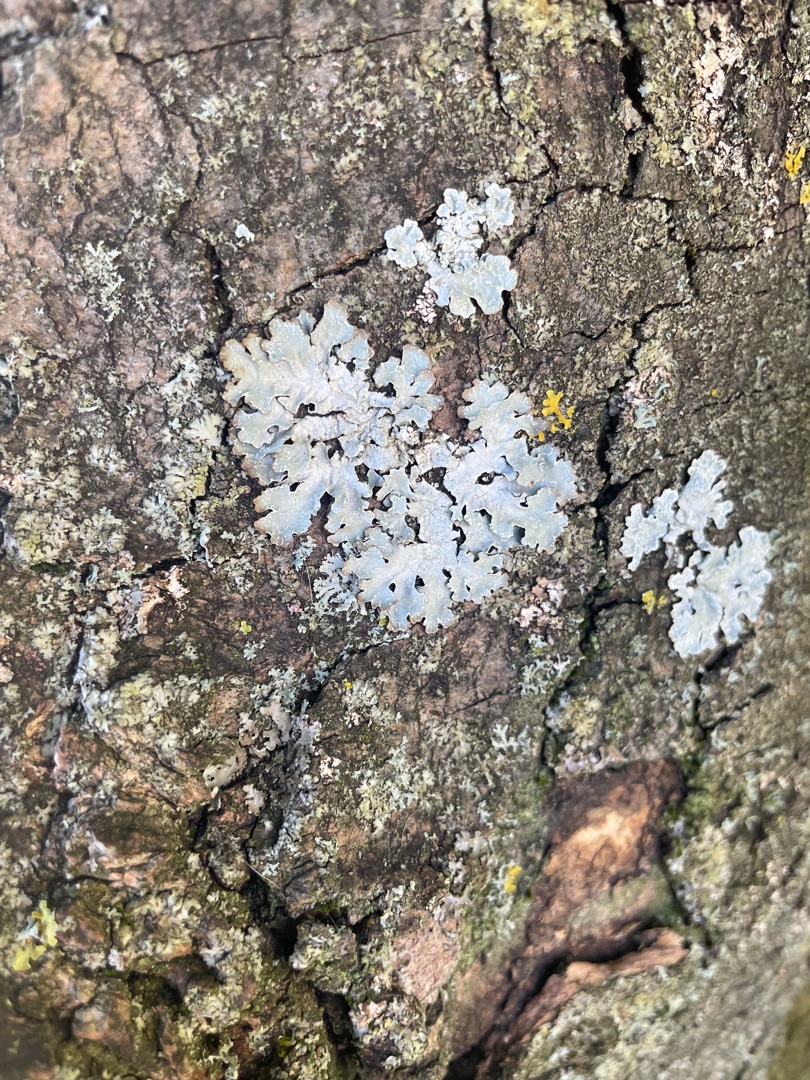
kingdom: Fungi
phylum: Ascomycota
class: Lecanoromycetes
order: Lecanorales
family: Parmeliaceae
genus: Parmelia
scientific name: Parmelia sulcata
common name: Rynket skållav
